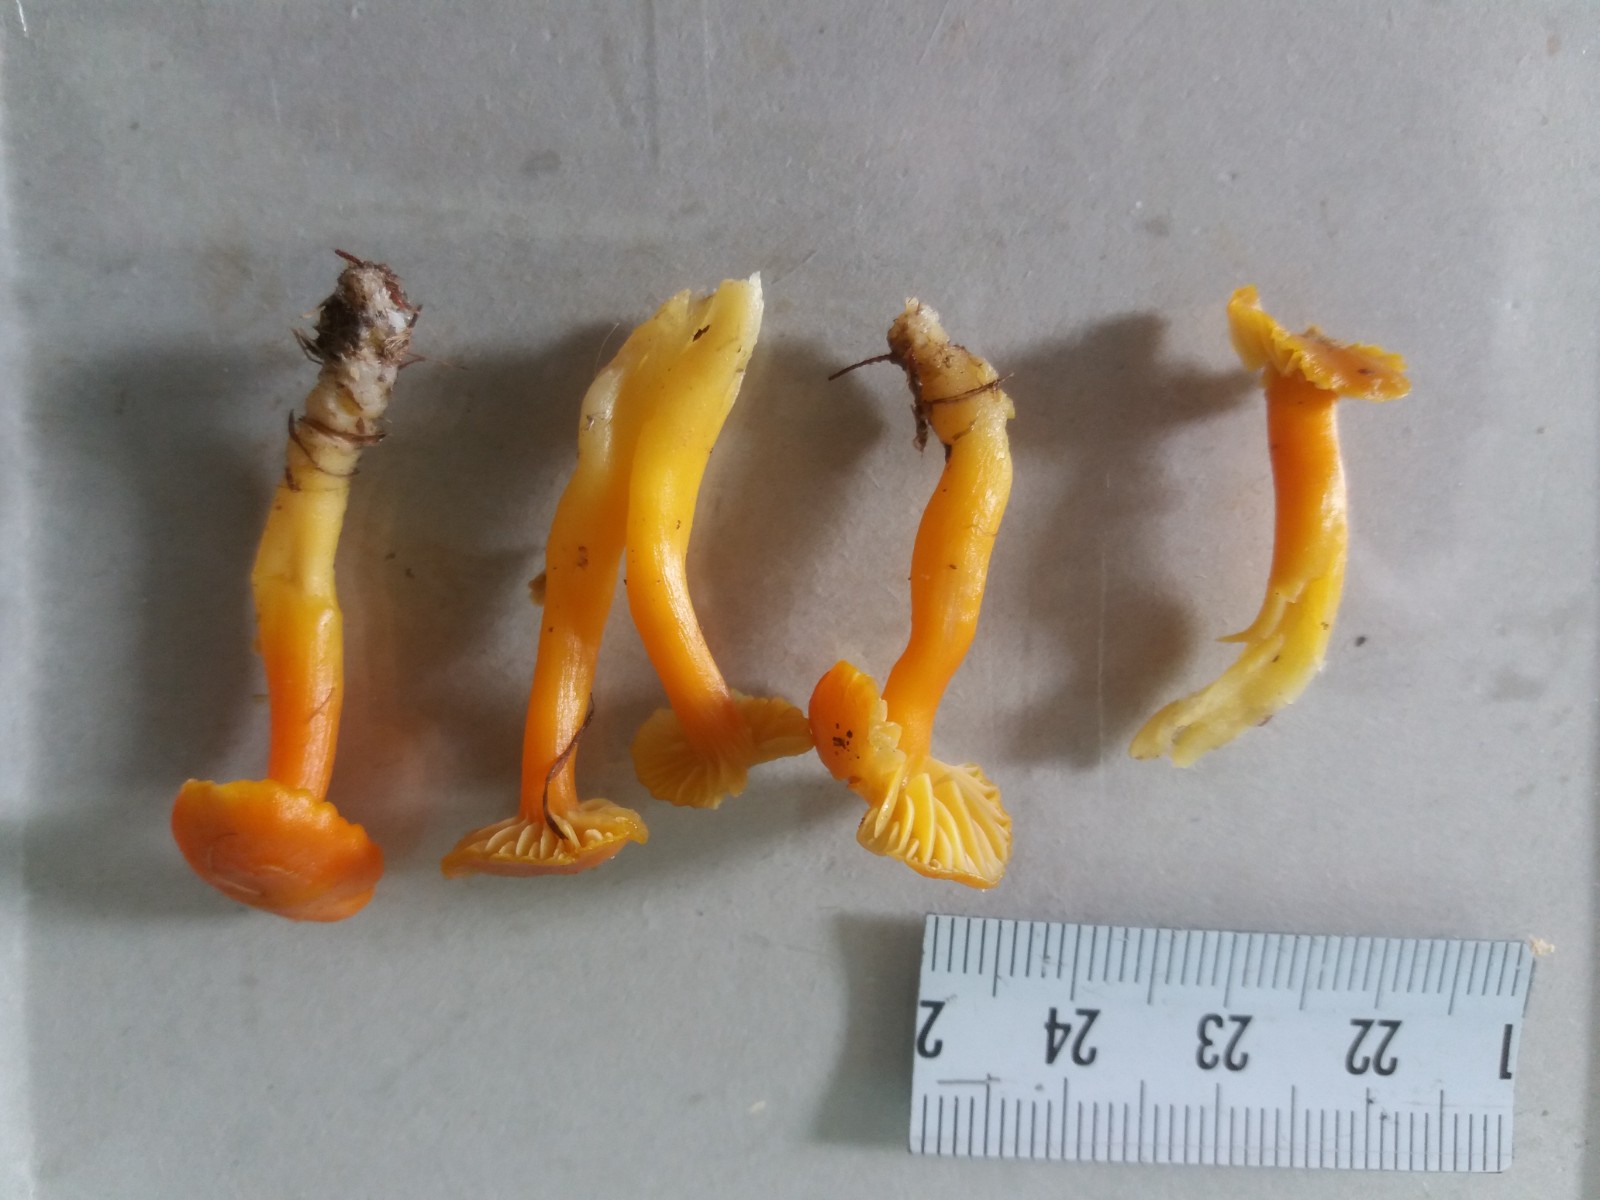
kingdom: Fungi
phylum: Basidiomycota
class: Agaricomycetes
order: Agaricales
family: Hygrophoraceae
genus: Hygrocybe
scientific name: Hygrocybe reidii
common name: honning-vokshat
